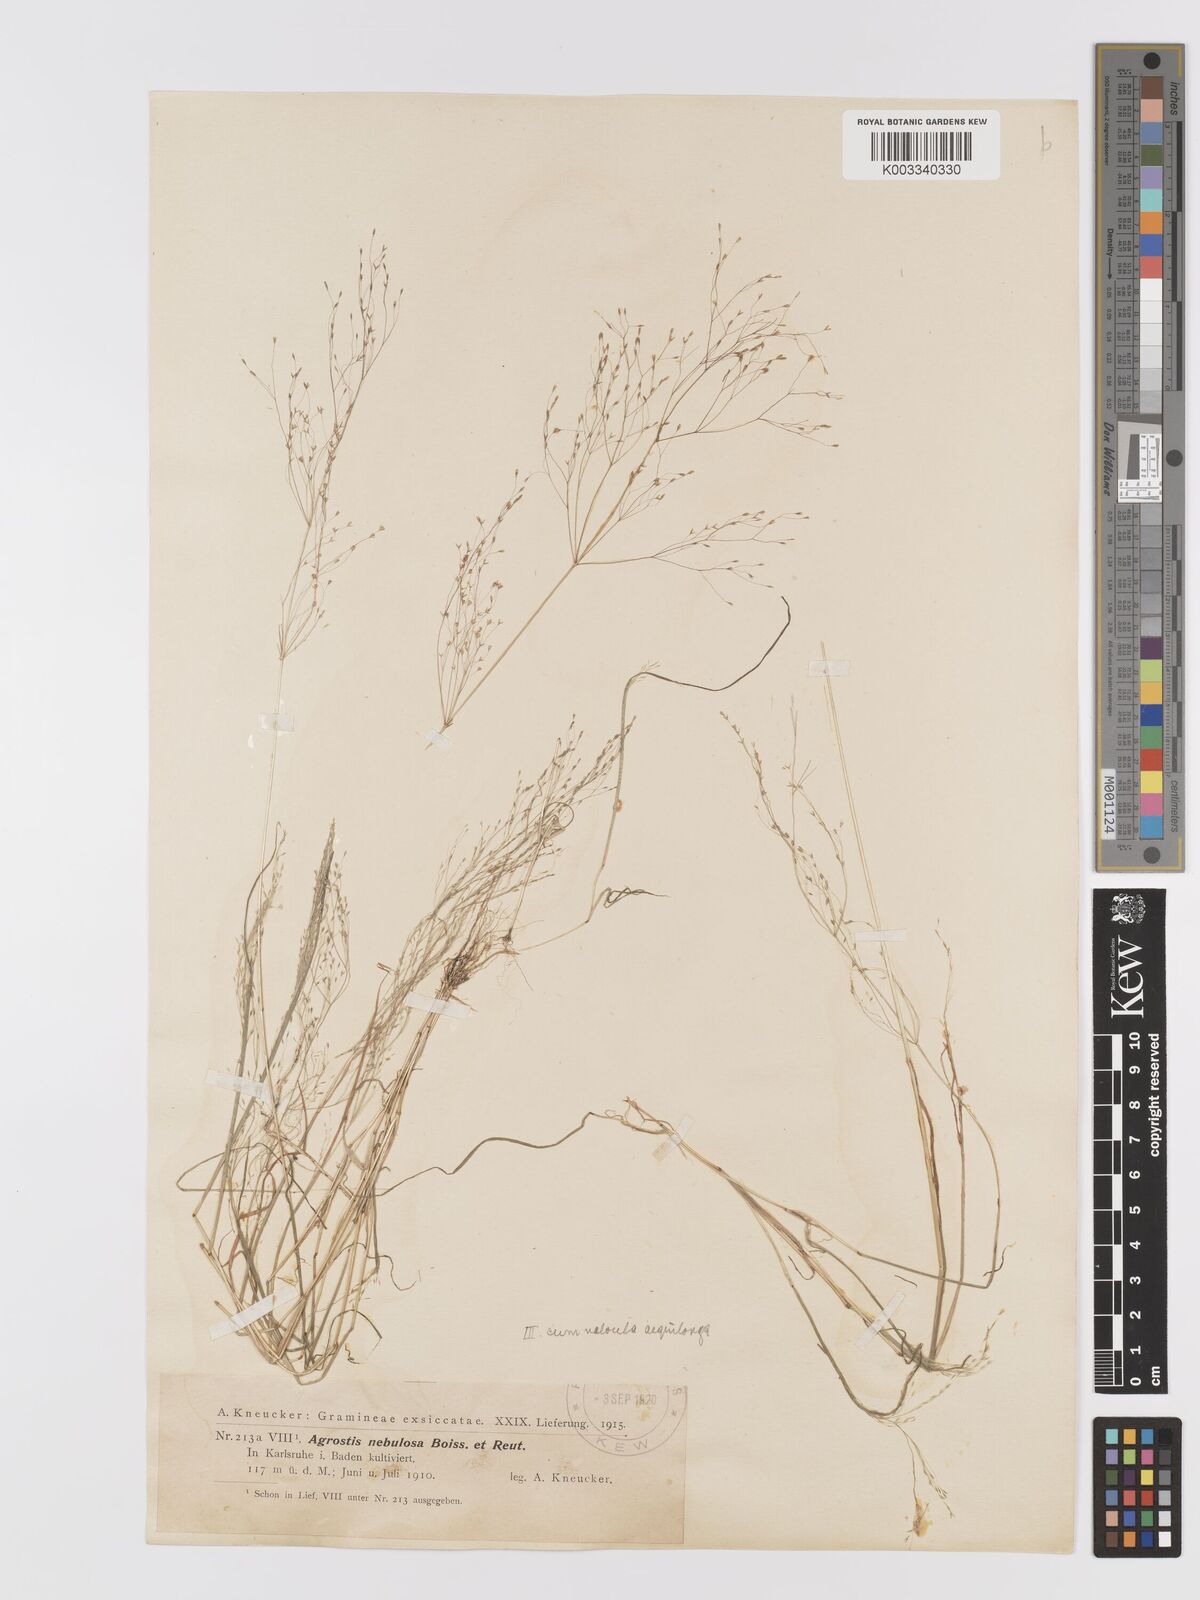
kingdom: Plantae
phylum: Tracheophyta
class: Liliopsida
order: Poales
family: Poaceae
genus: Agrostis
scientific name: Agrostis nebulosa
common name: Cloud grass
